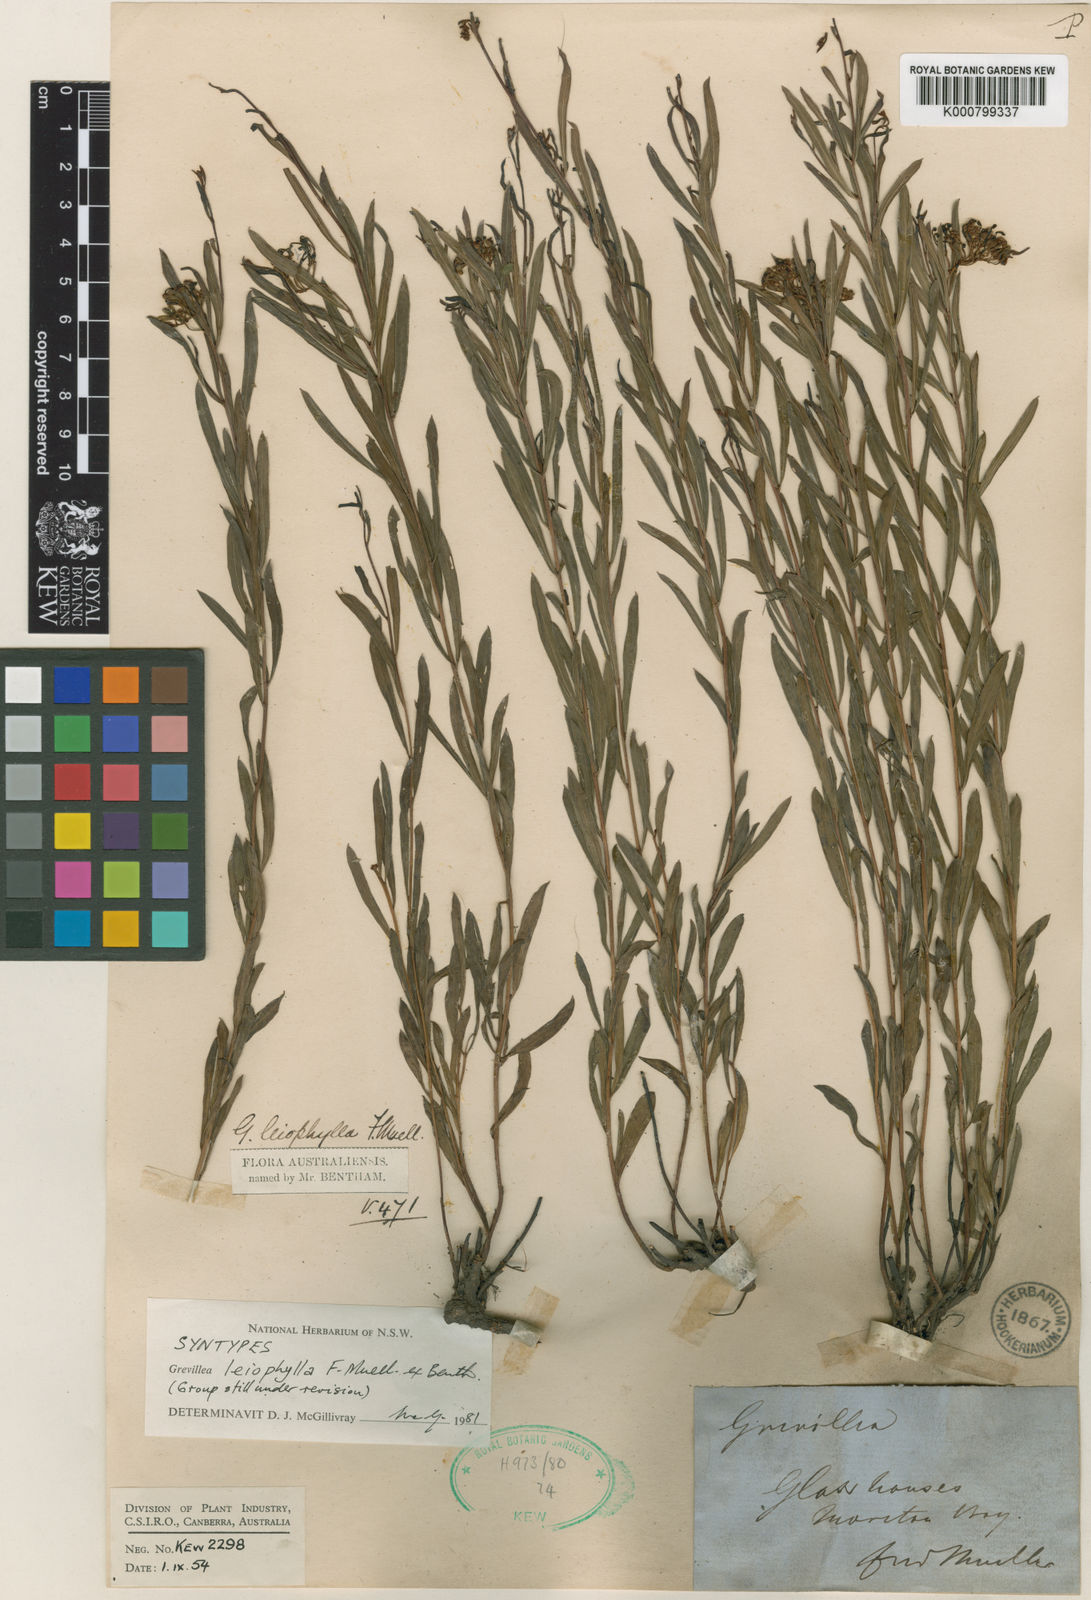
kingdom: Plantae
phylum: Tracheophyta
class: Magnoliopsida
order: Proteales
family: Proteaceae
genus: Grevillea
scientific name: Grevillea leiophylla
